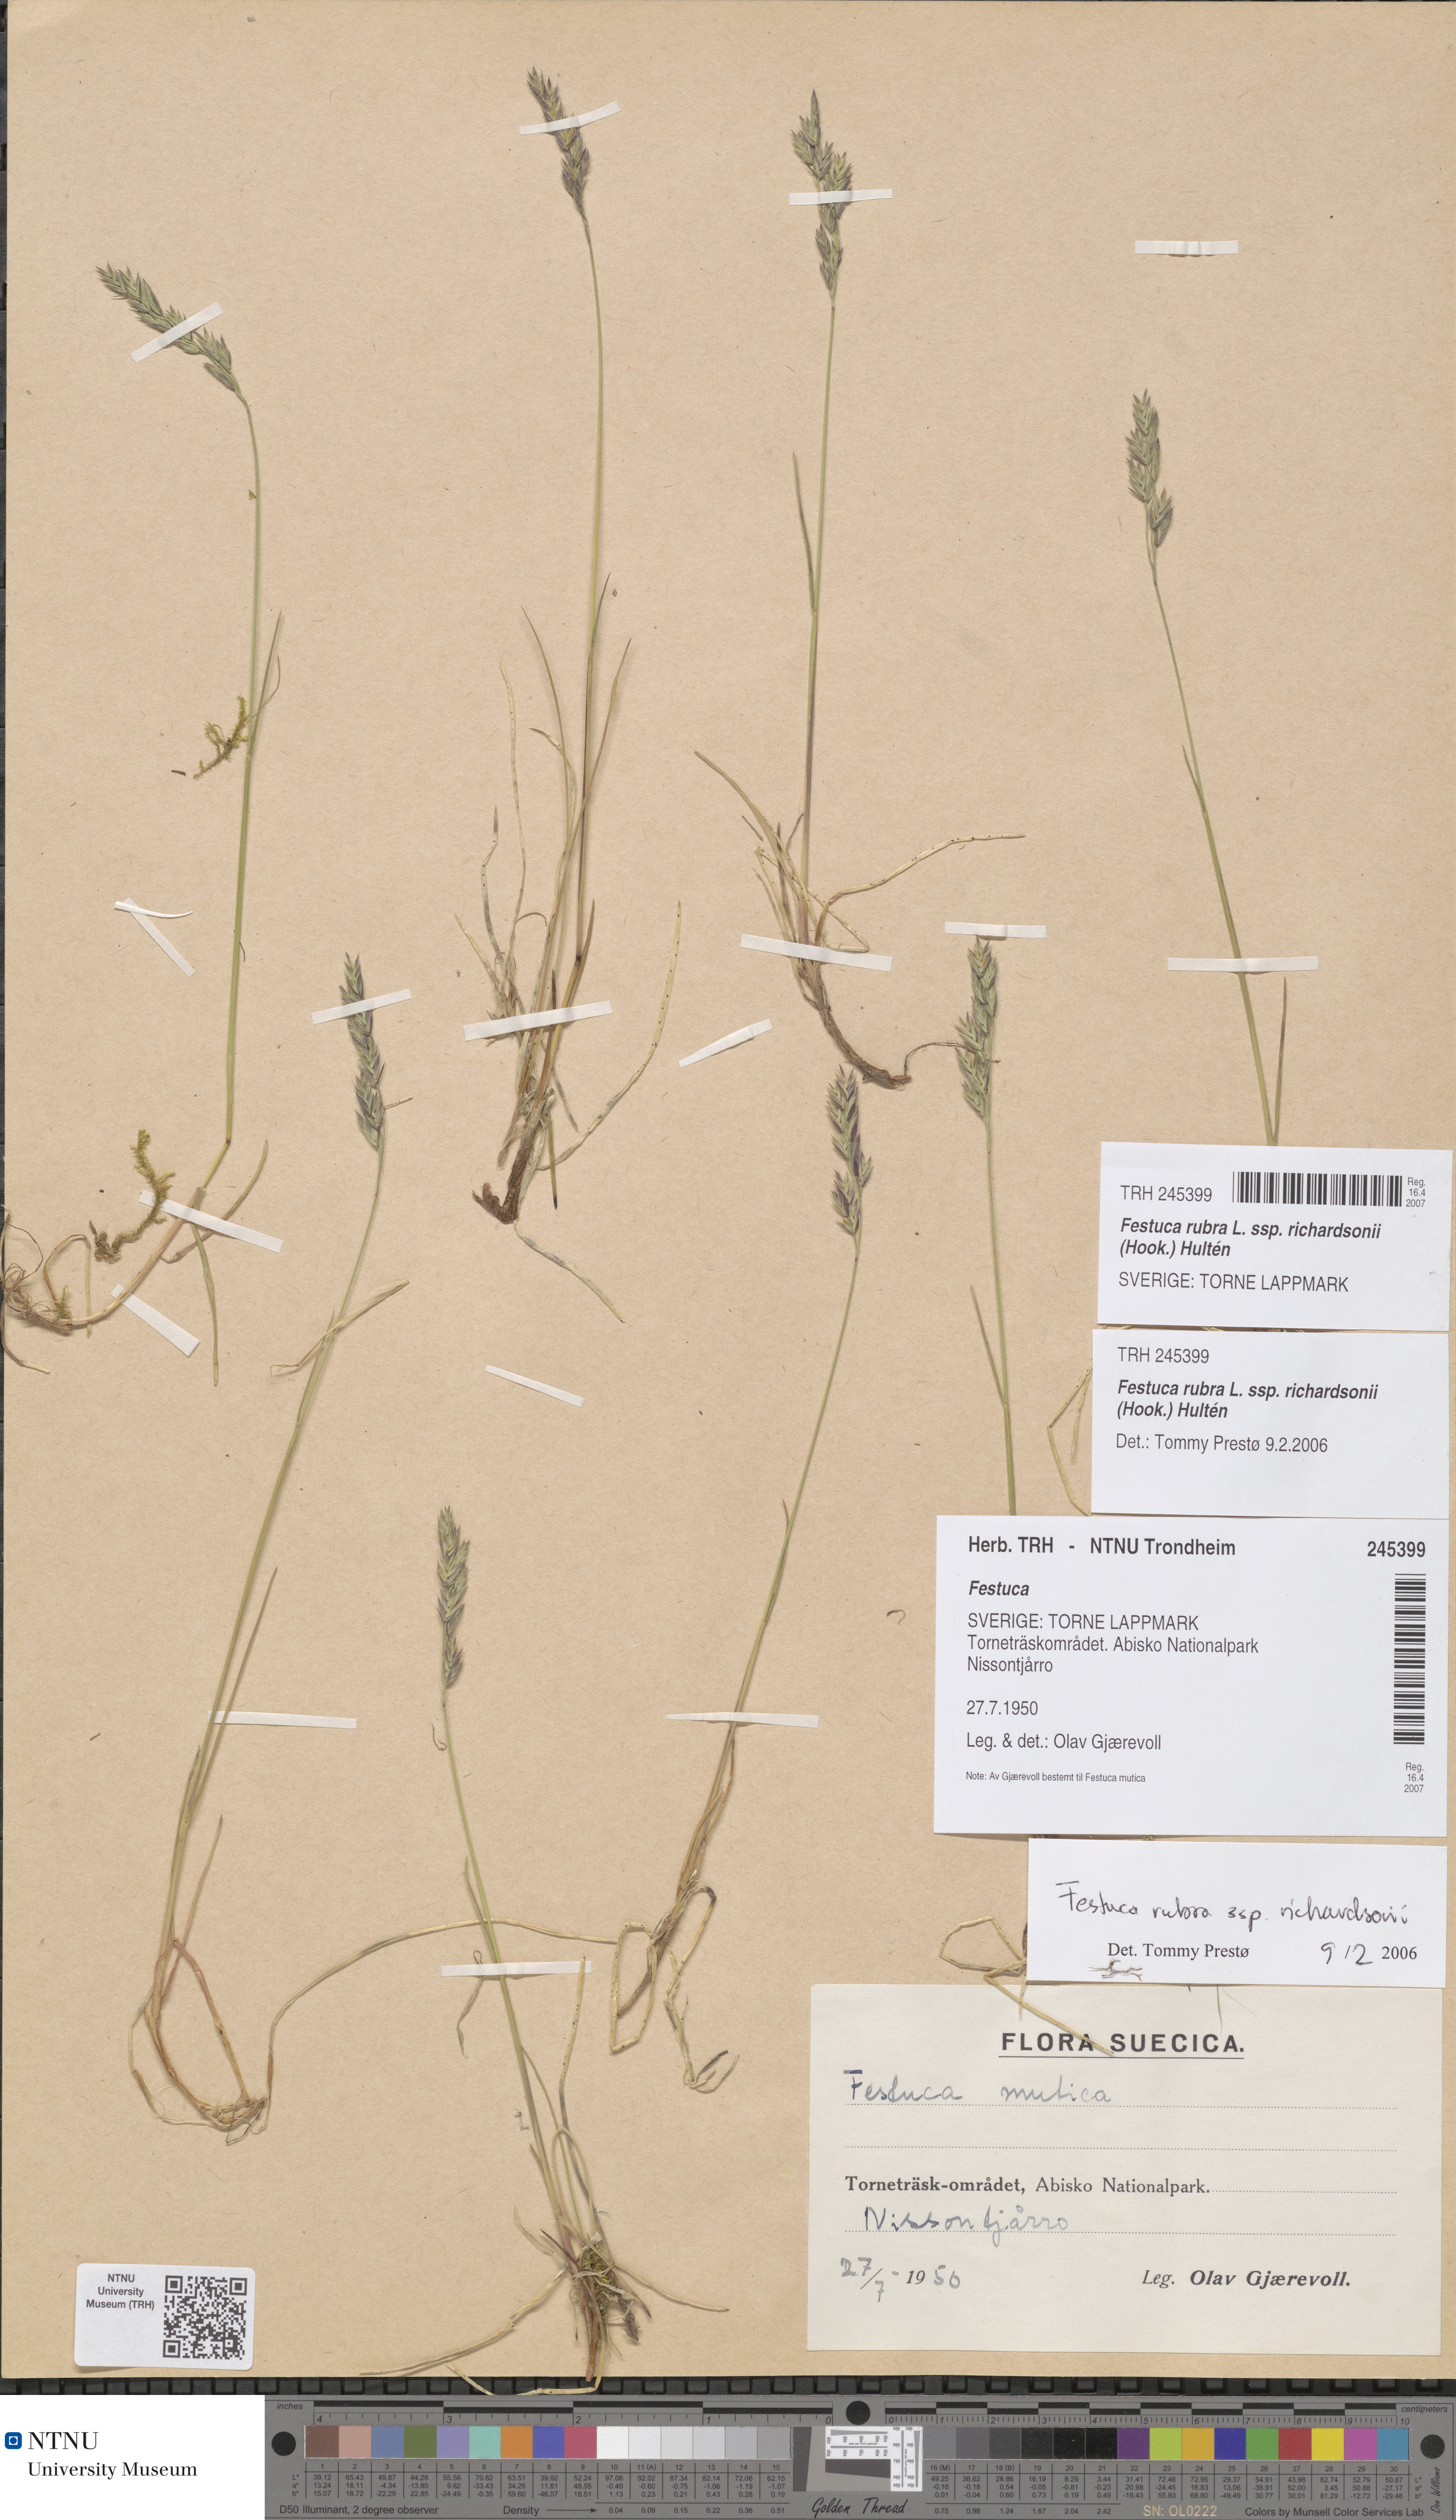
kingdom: Plantae
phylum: Tracheophyta
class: Liliopsida
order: Poales
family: Poaceae
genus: Festuca
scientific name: Festuca richardsonii
